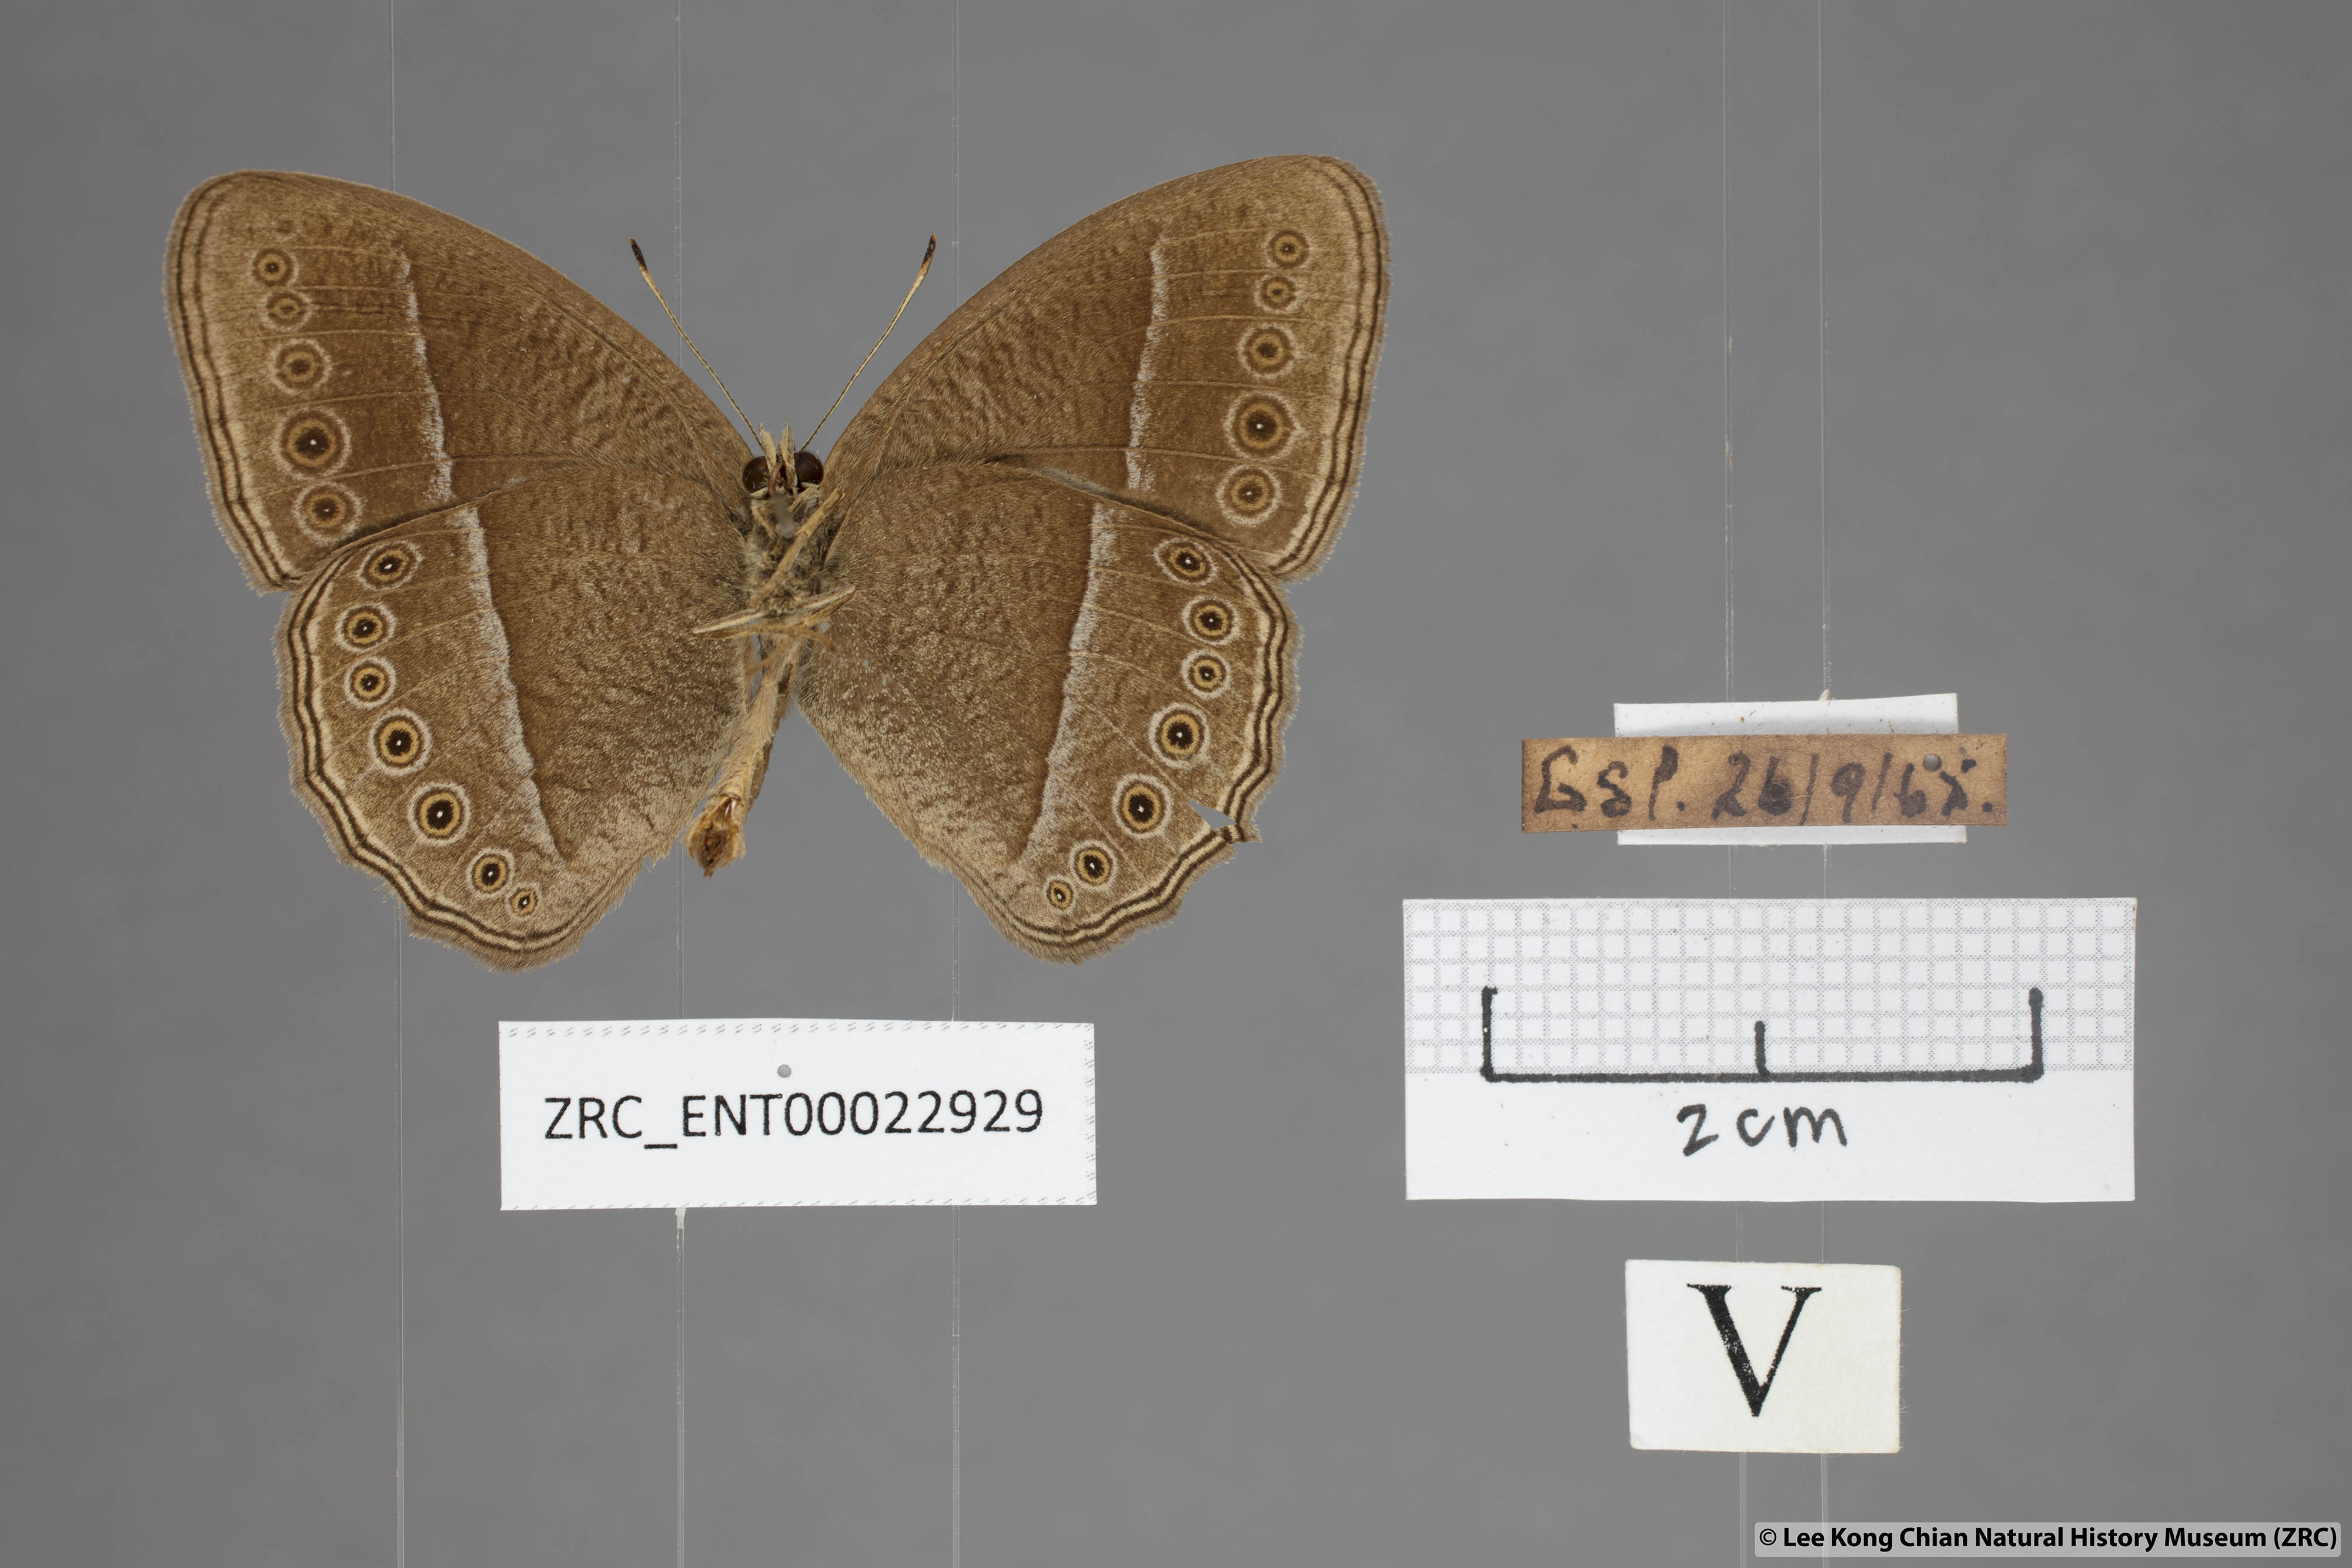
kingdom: Animalia
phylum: Arthropoda
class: Insecta
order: Lepidoptera
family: Nymphalidae
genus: Mycalesis
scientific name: Mycalesis janardana
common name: Common bush brown
